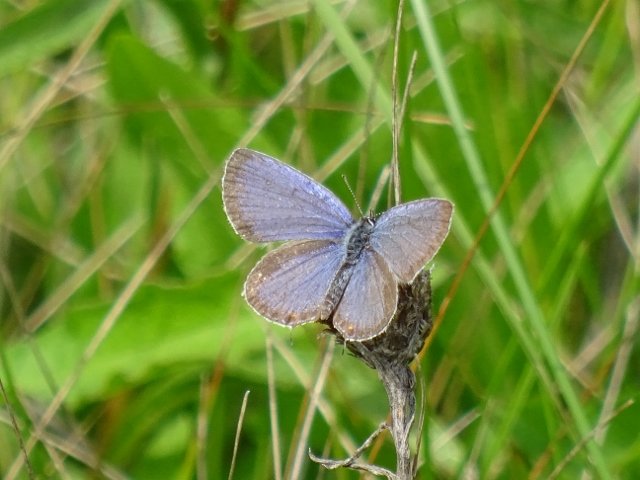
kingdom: Animalia
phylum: Arthropoda
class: Insecta
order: Lepidoptera
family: Lycaenidae
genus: Elkalyce
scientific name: Elkalyce comyntas
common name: Eastern Tailed-Blue
